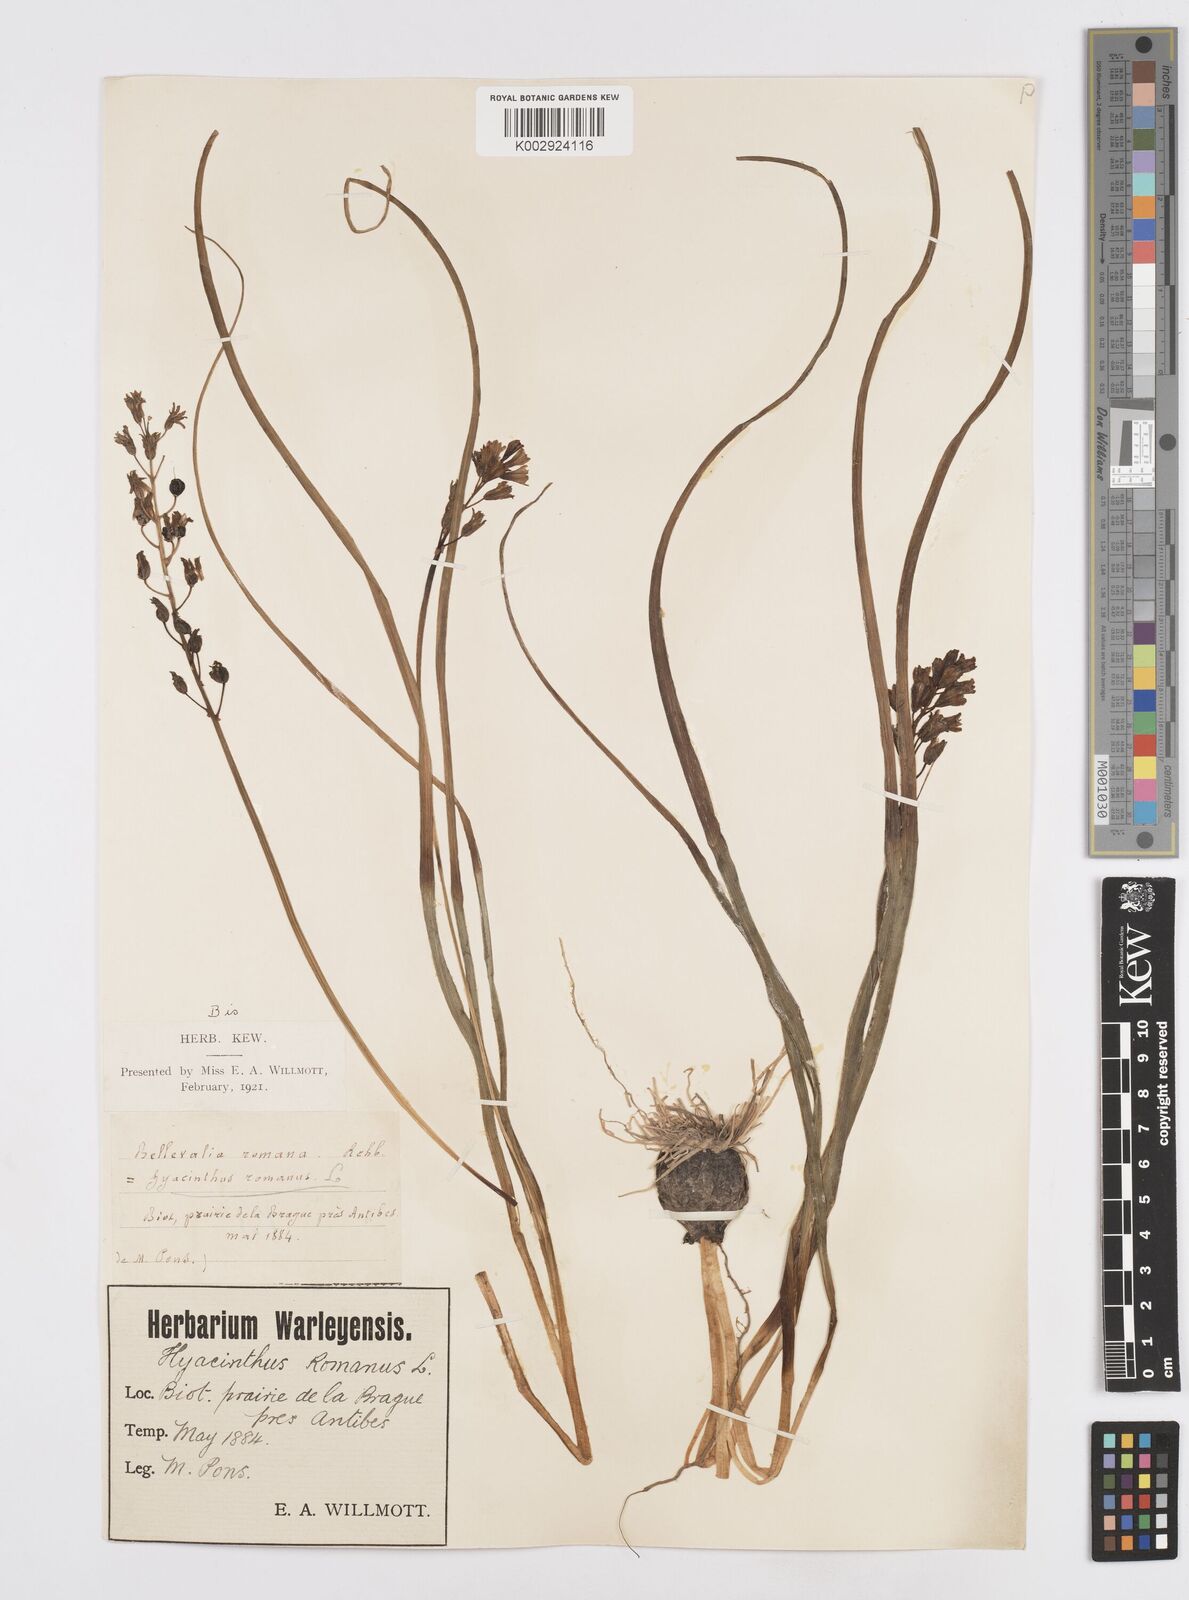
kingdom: Plantae
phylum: Tracheophyta
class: Liliopsida
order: Asparagales
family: Asparagaceae
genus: Bellevalia
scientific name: Bellevalia
